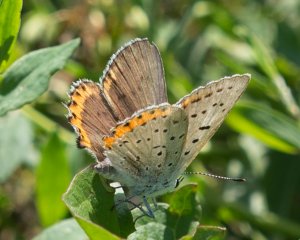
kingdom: Animalia
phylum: Arthropoda
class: Insecta
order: Lepidoptera
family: Lycaenidae
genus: Nacaduba
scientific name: Nacaduba dyopa
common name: Gray Copper
